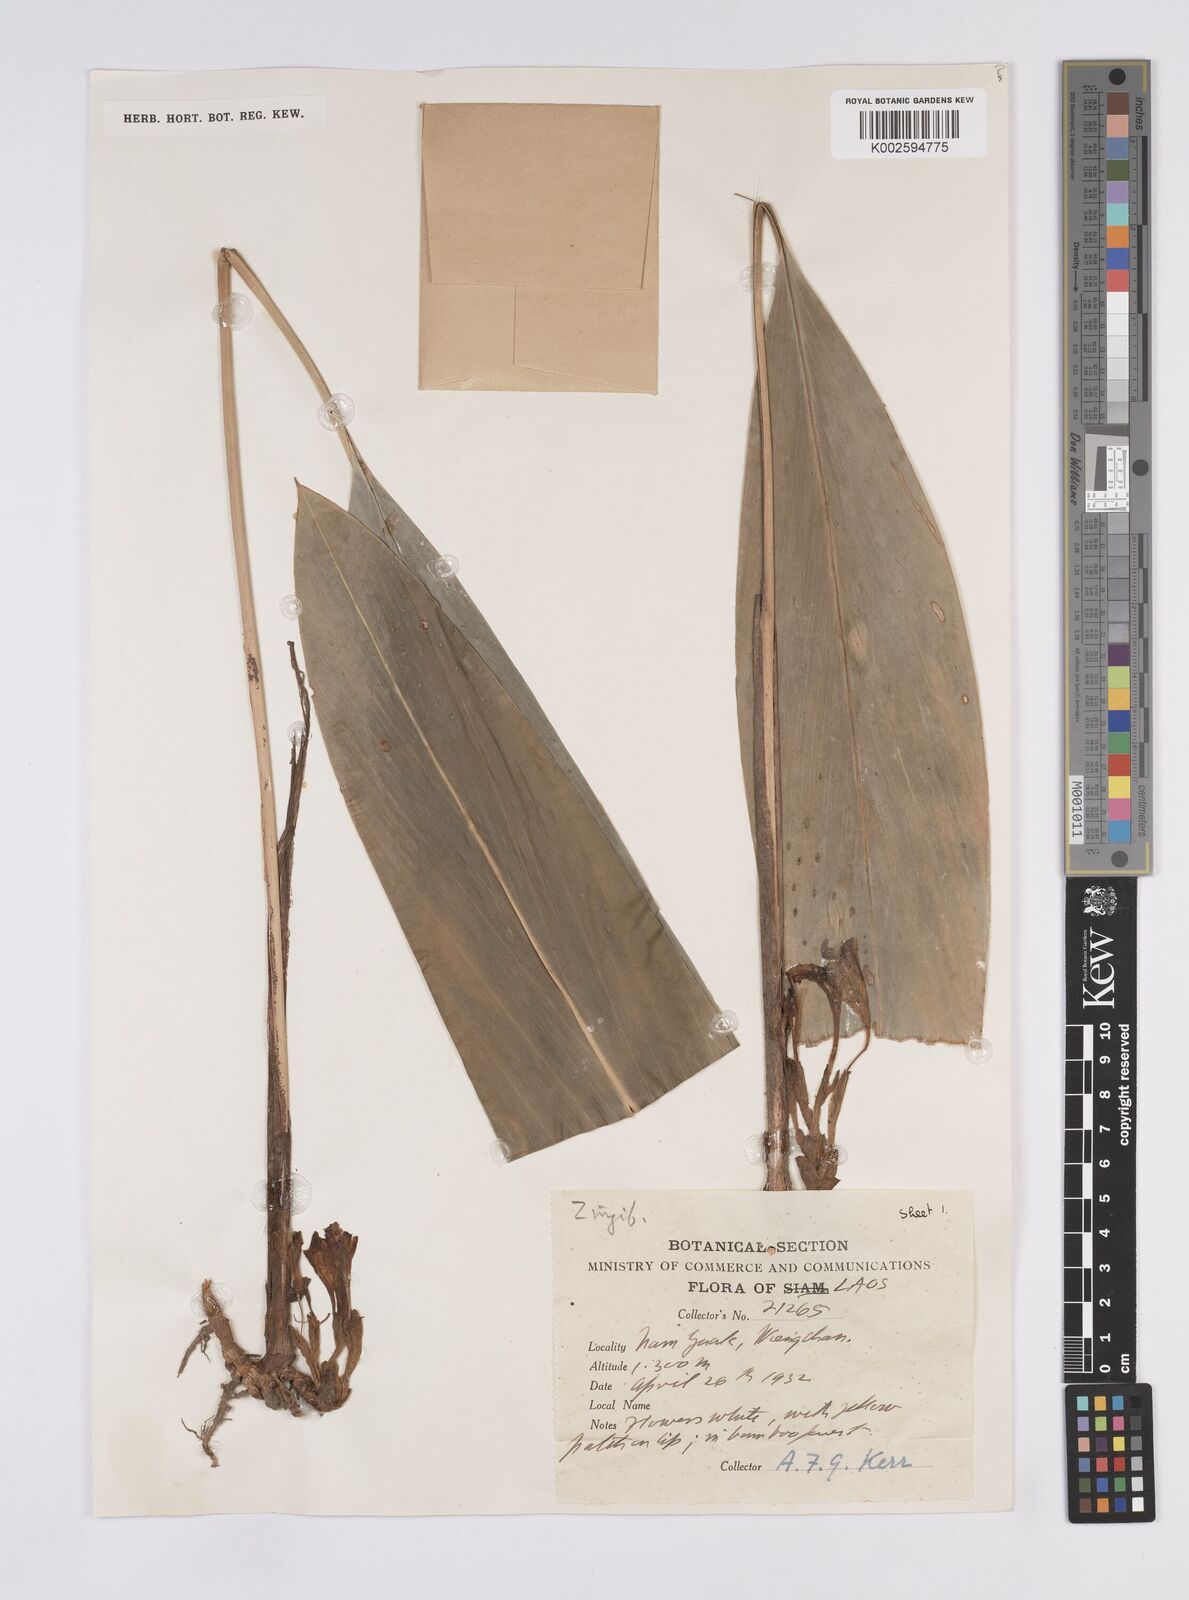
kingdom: Plantae
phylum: Tracheophyta
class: Liliopsida
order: Zingiberales
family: Zingiberaceae
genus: Amomum
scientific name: Amomum
